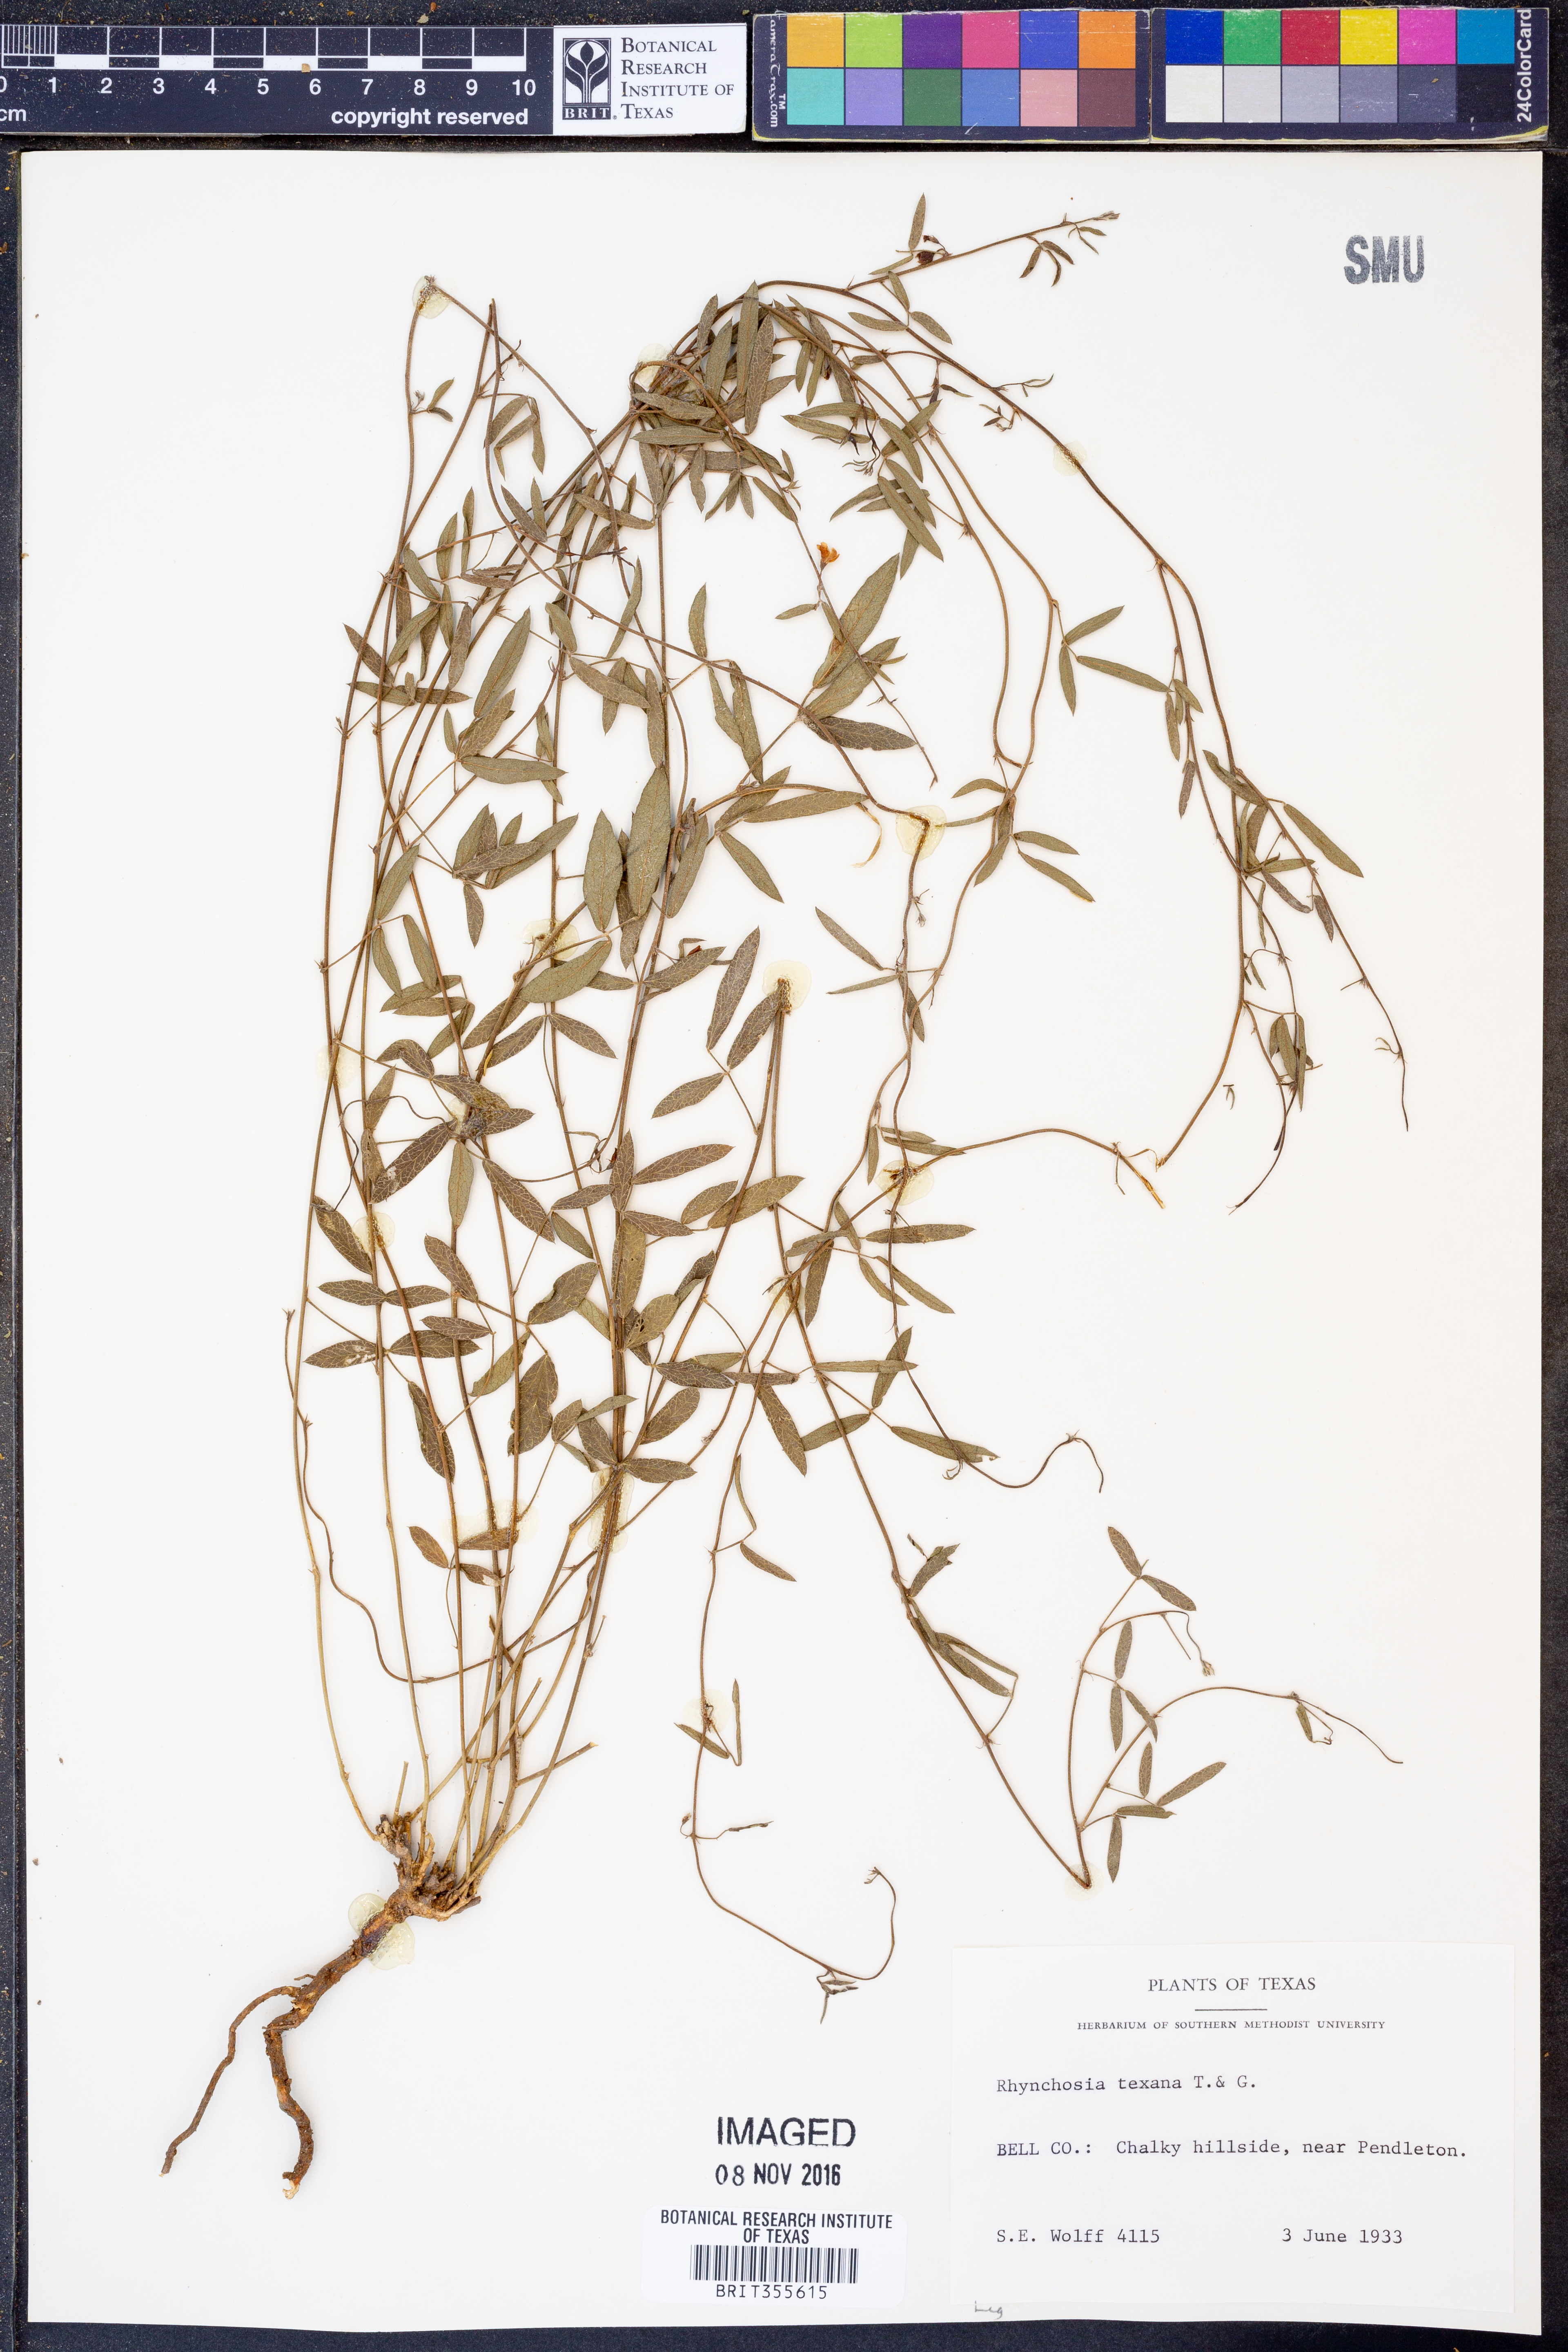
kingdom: Plantae
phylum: Tracheophyta
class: Magnoliopsida
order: Fabales
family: Fabaceae
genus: Rhynchosia
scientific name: Rhynchosia senna
